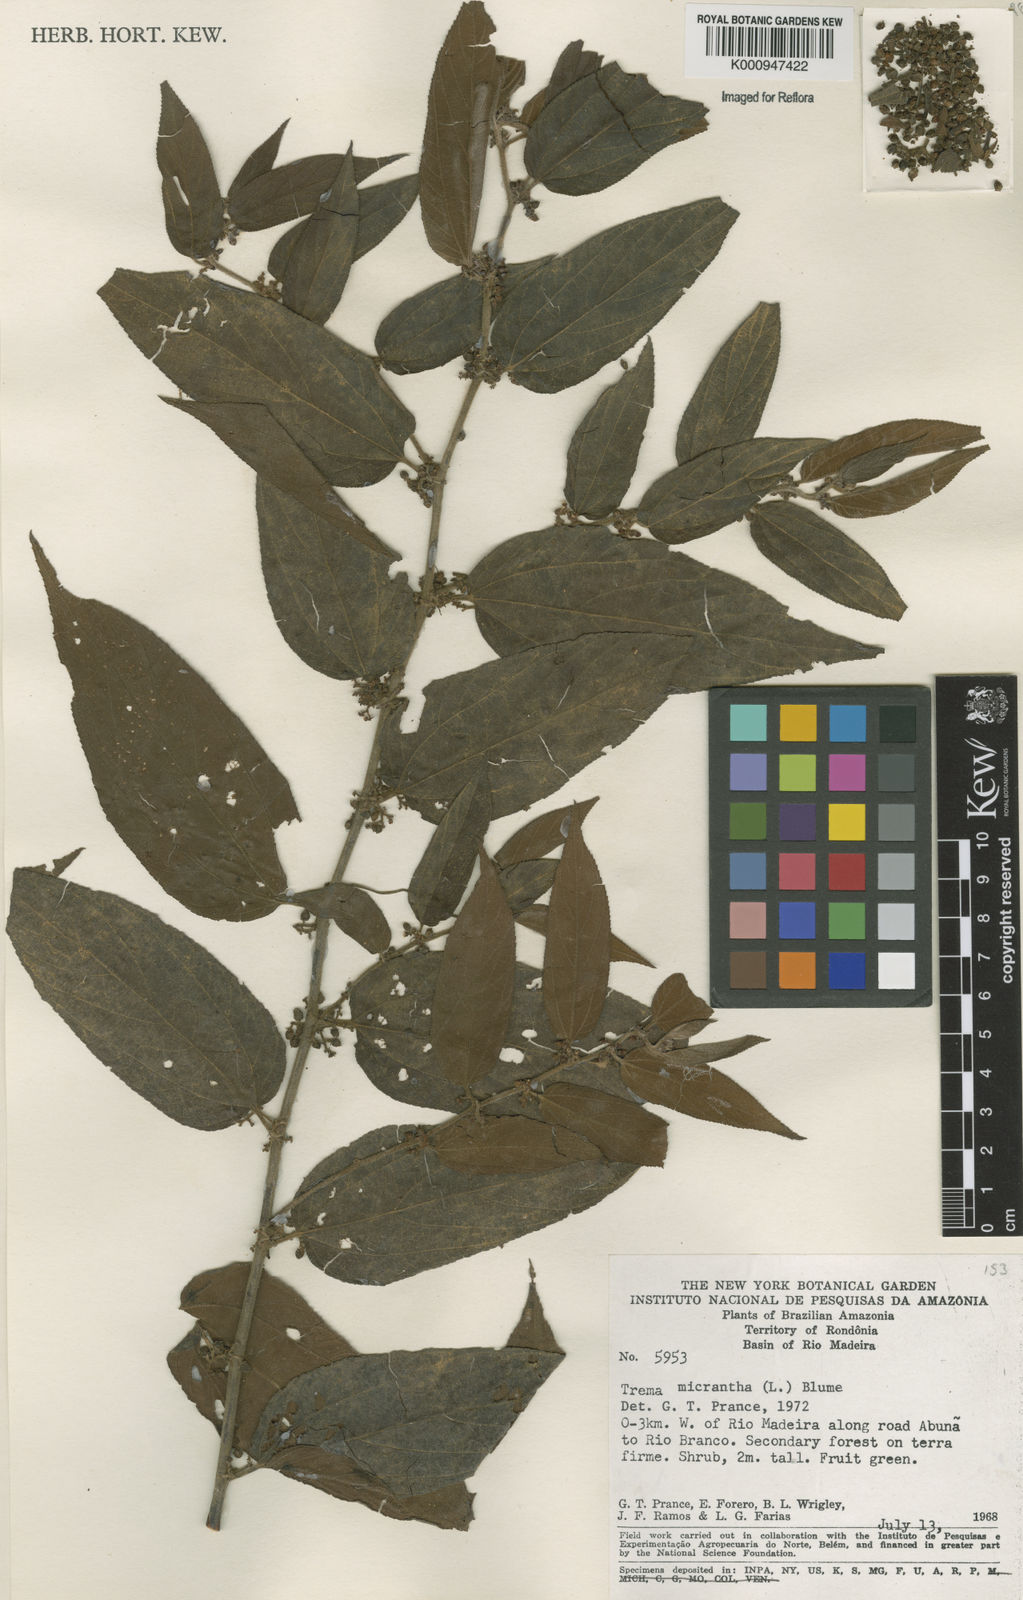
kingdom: Plantae
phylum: Tracheophyta
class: Magnoliopsida
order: Rosales
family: Cannabaceae
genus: Trema
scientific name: Trema micranthum
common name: Jamaican nettletree
